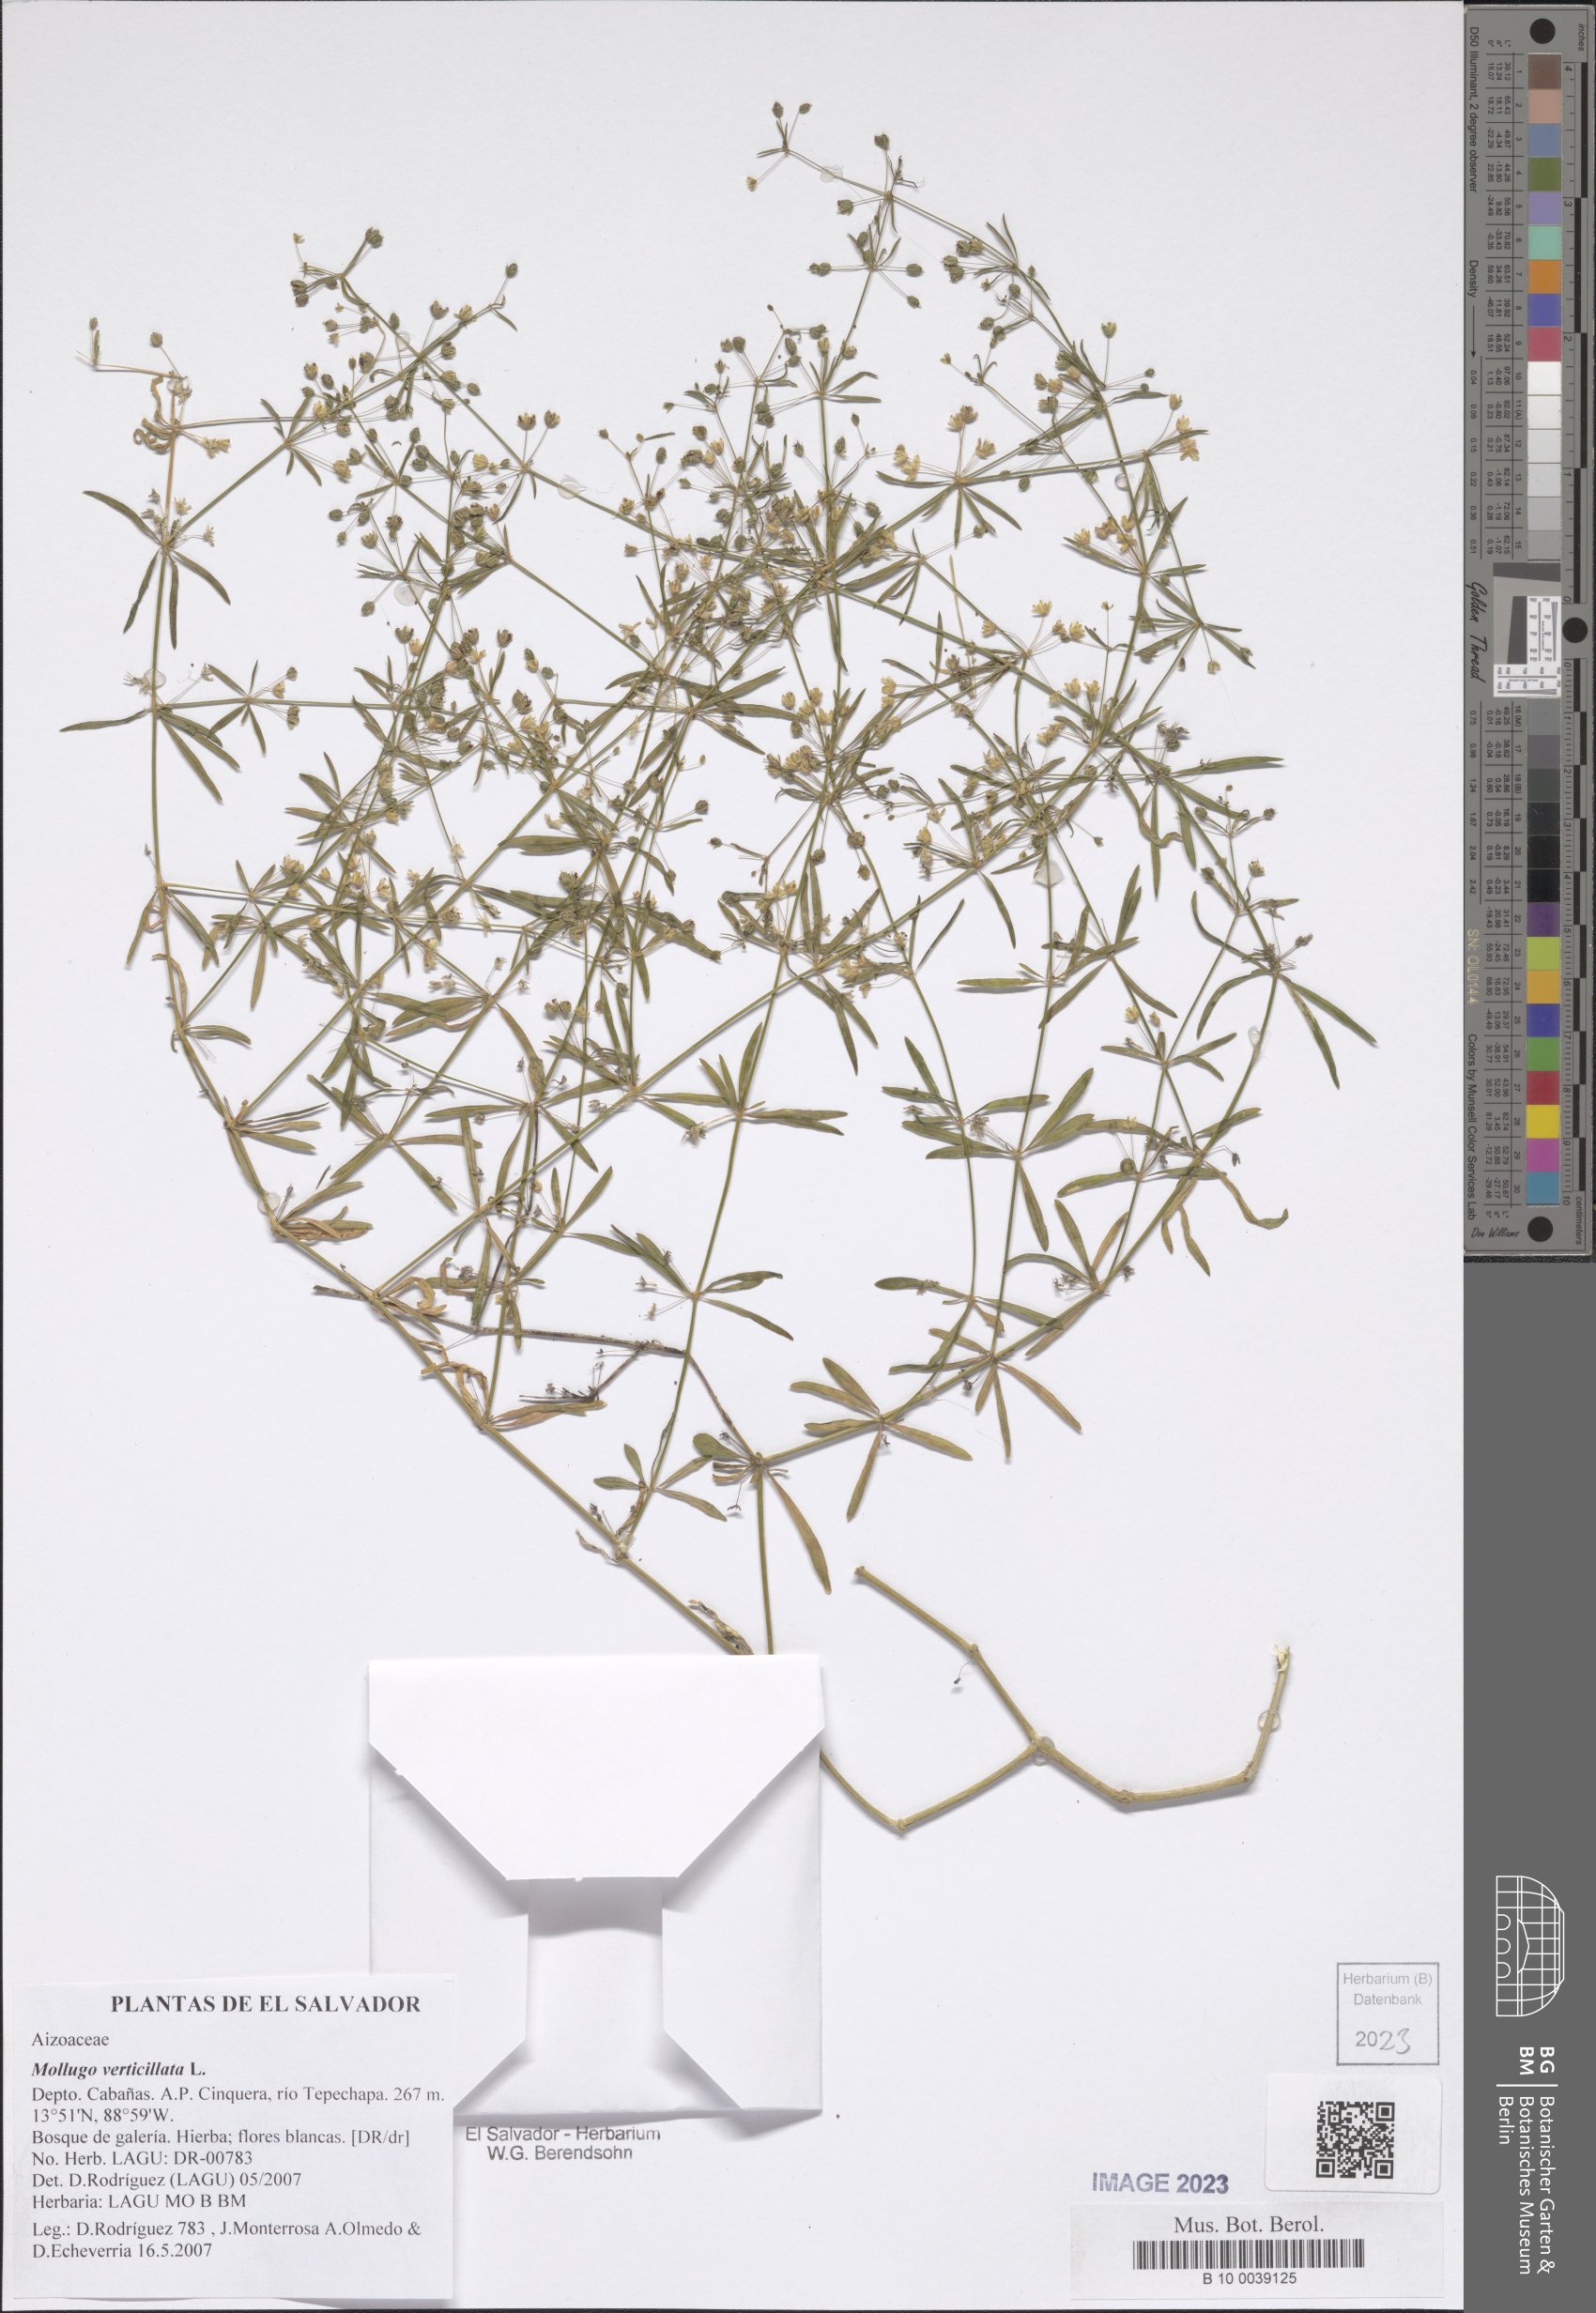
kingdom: Plantae
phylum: Tracheophyta
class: Magnoliopsida
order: Caryophyllales
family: Molluginaceae
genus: Mollugo
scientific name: Mollugo verticillata
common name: Green carpetweed
